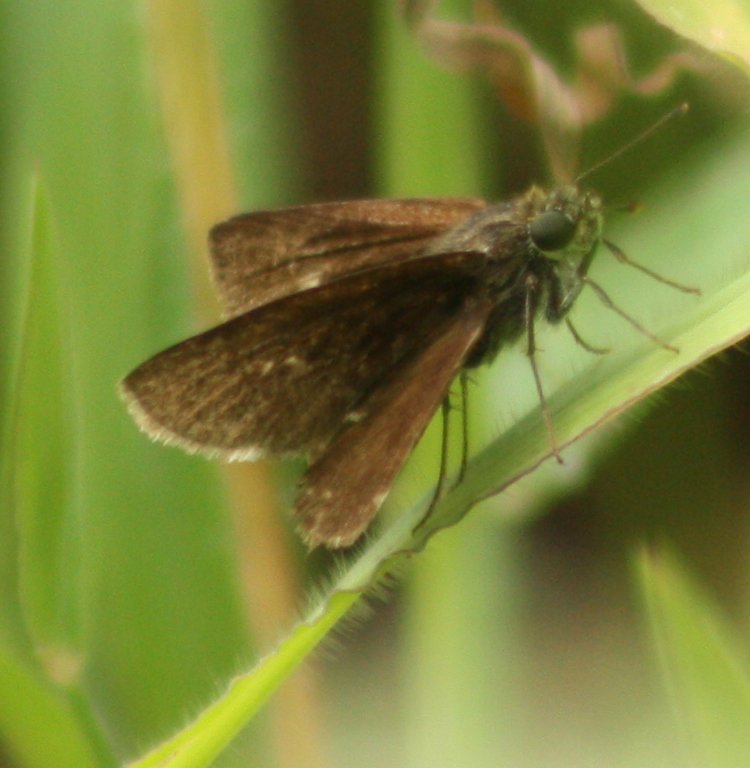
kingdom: Animalia
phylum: Arthropoda
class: Insecta
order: Lepidoptera
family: Hesperiidae
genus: Euphyes
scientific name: Euphyes vestris
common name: Dun Skipper
